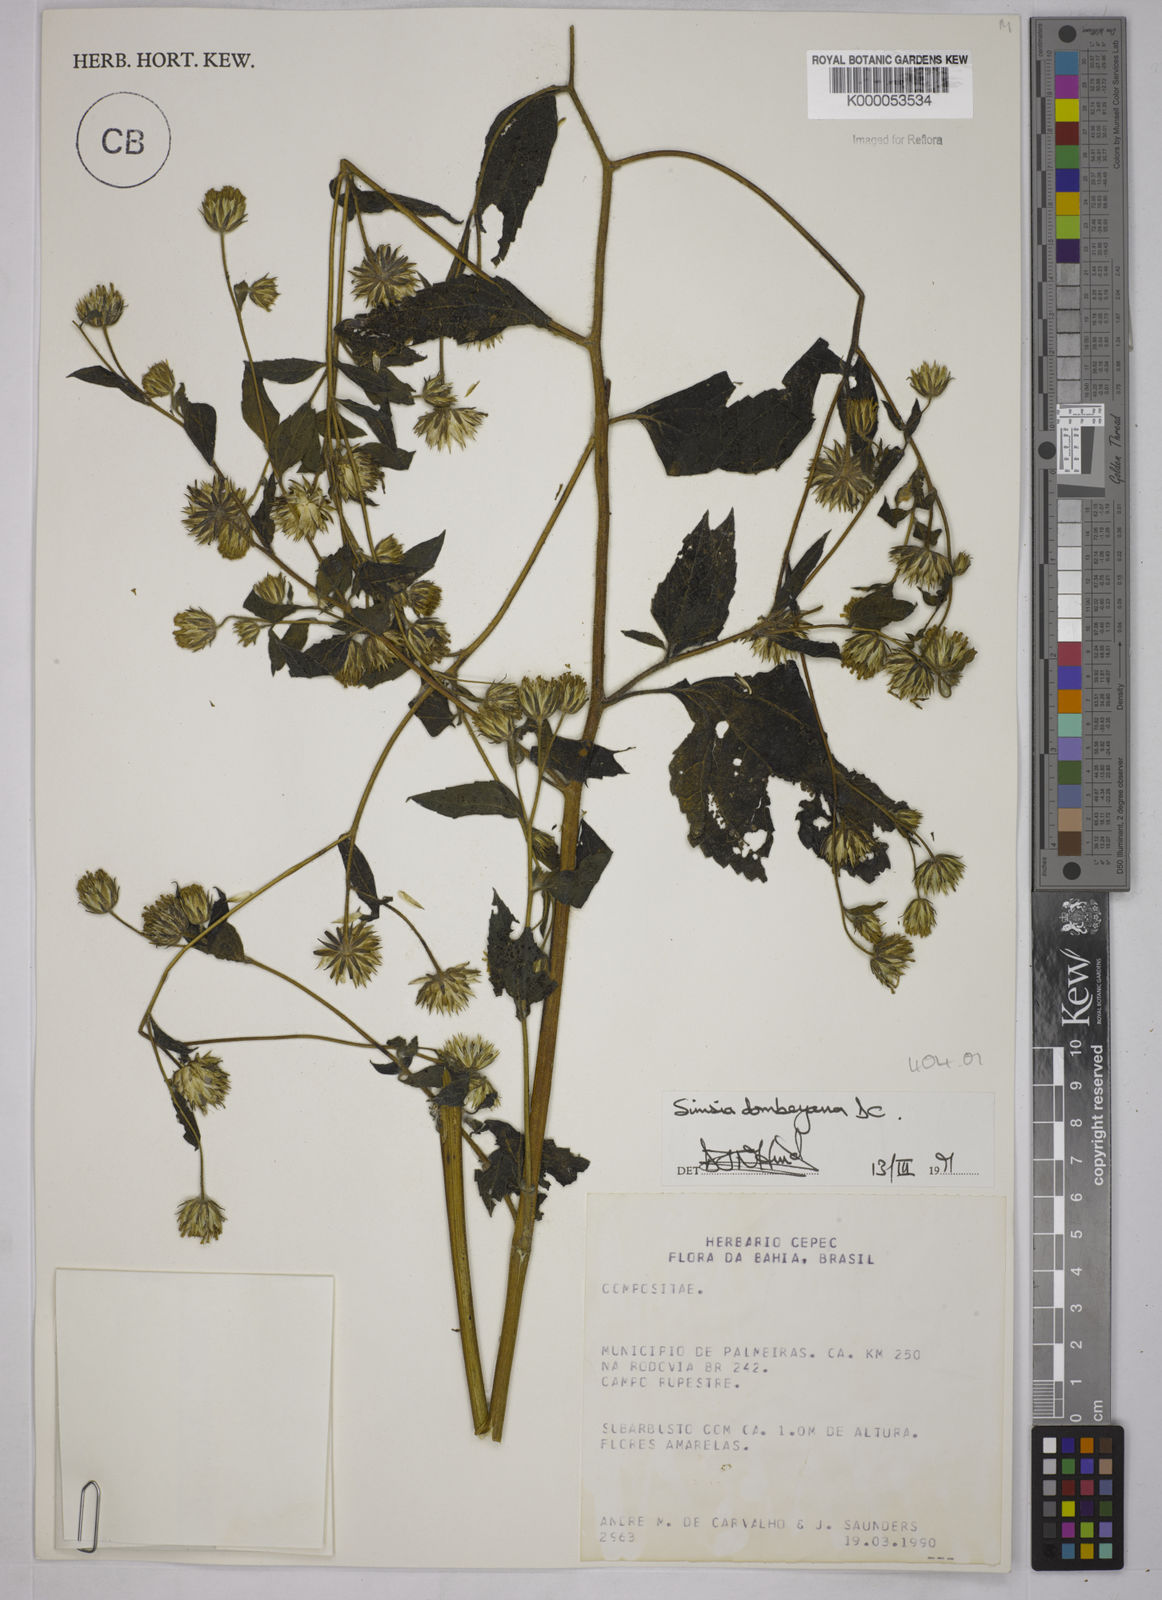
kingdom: Plantae
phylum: Tracheophyta
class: Magnoliopsida
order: Asterales
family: Asteraceae
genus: Simsia
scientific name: Simsia dombeyana
